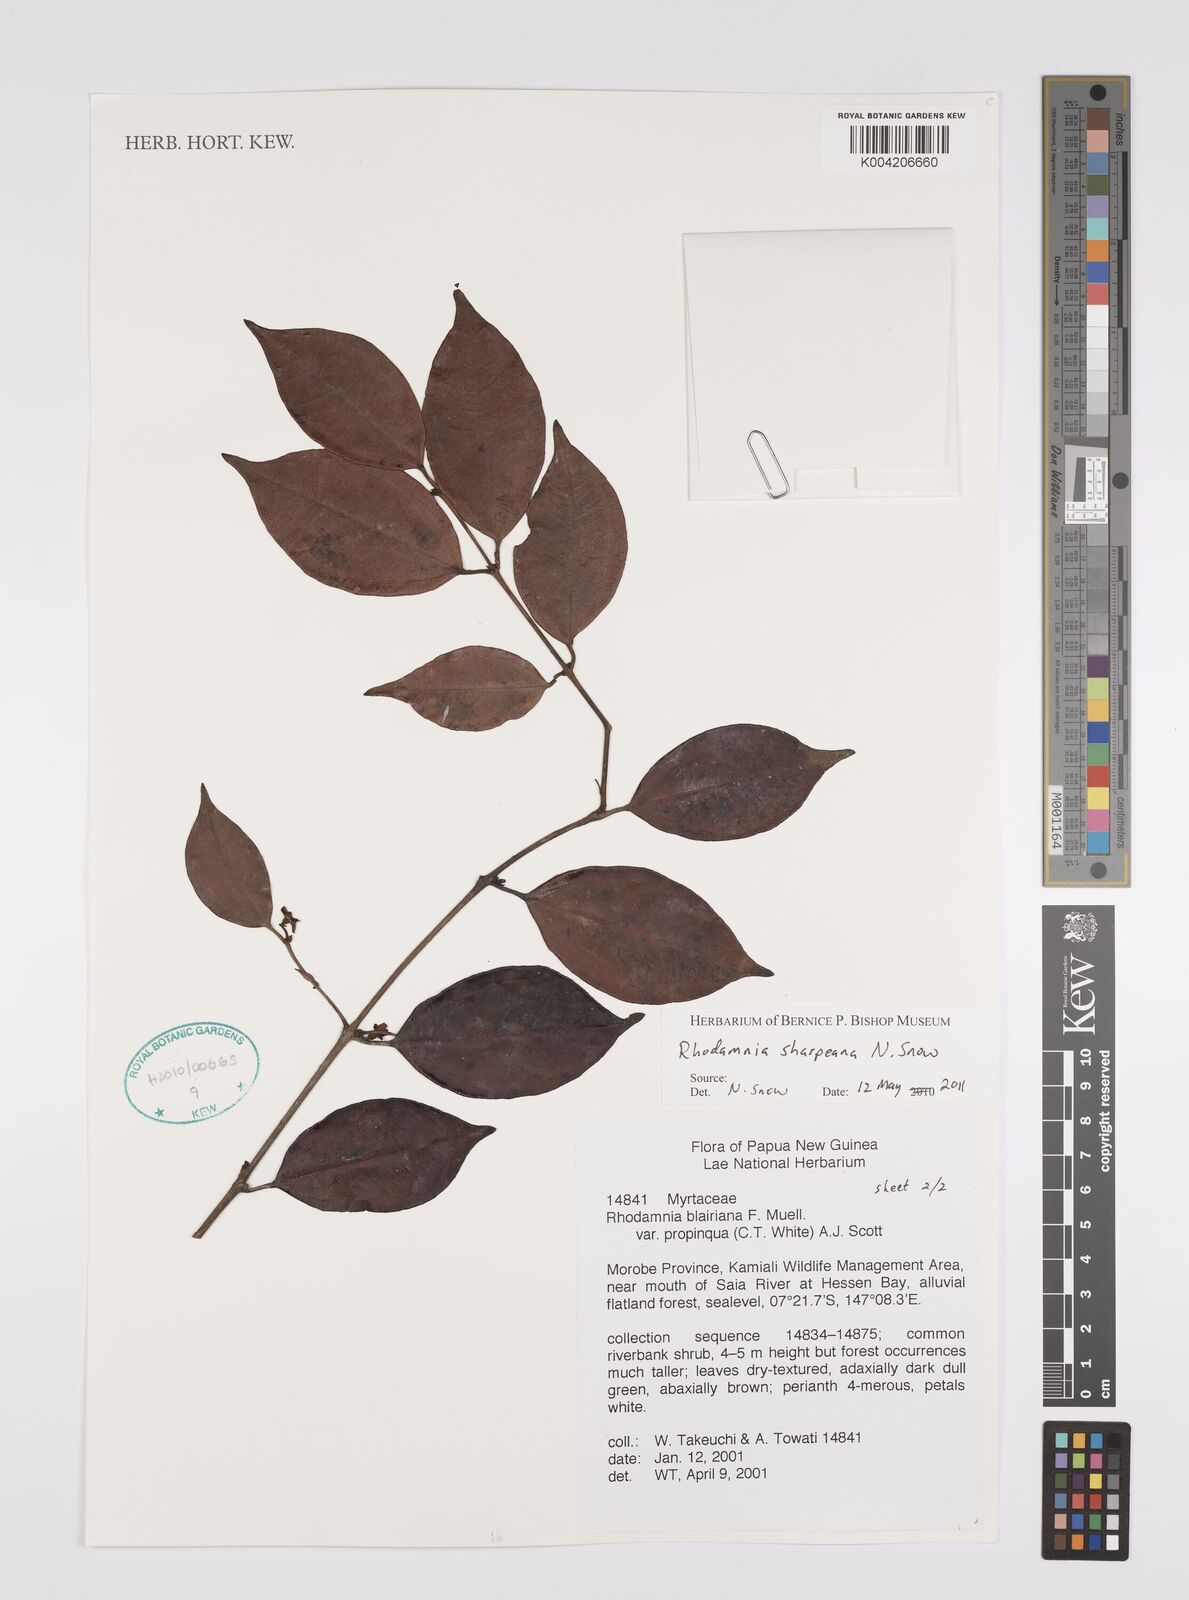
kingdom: Plantae
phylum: Tracheophyta
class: Magnoliopsida
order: Myrtales
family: Myrtaceae
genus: Rhodamnia
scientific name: Rhodamnia sharpeana
